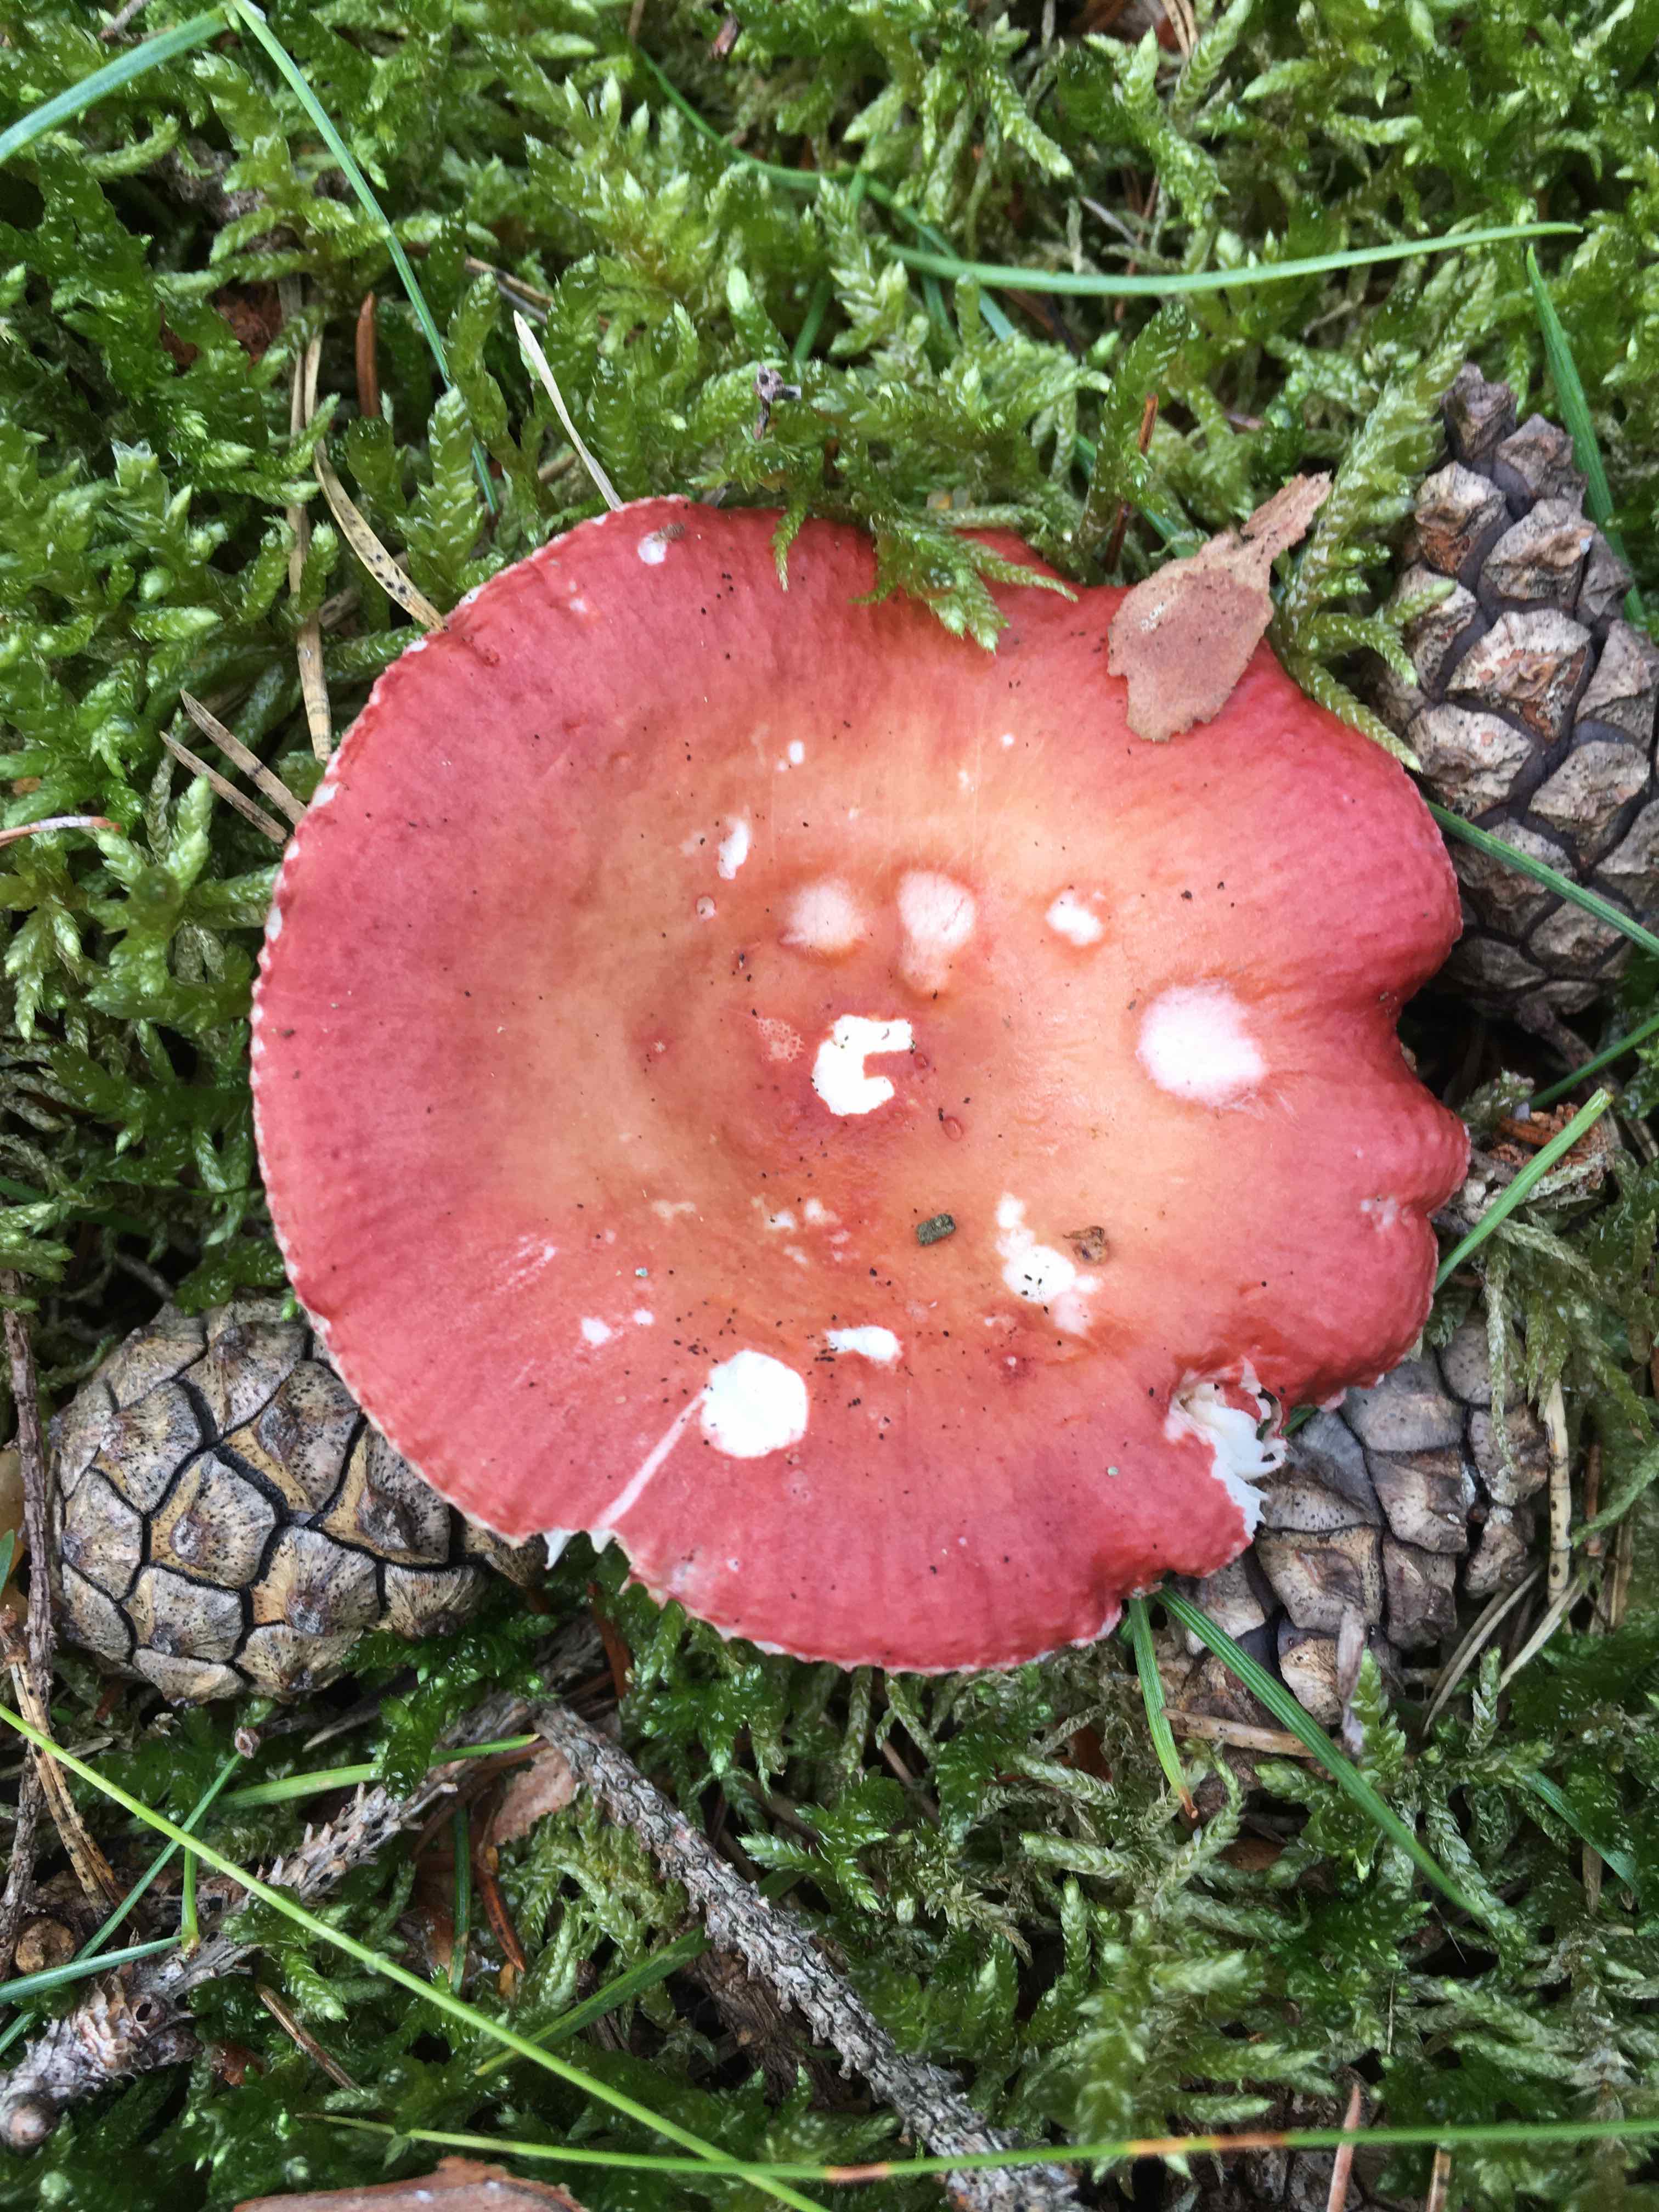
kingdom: Fungi
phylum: Basidiomycota
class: Agaricomycetes
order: Russulales
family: Russulaceae
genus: Russula
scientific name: Russula velenovskyi
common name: orangerød skørhat
